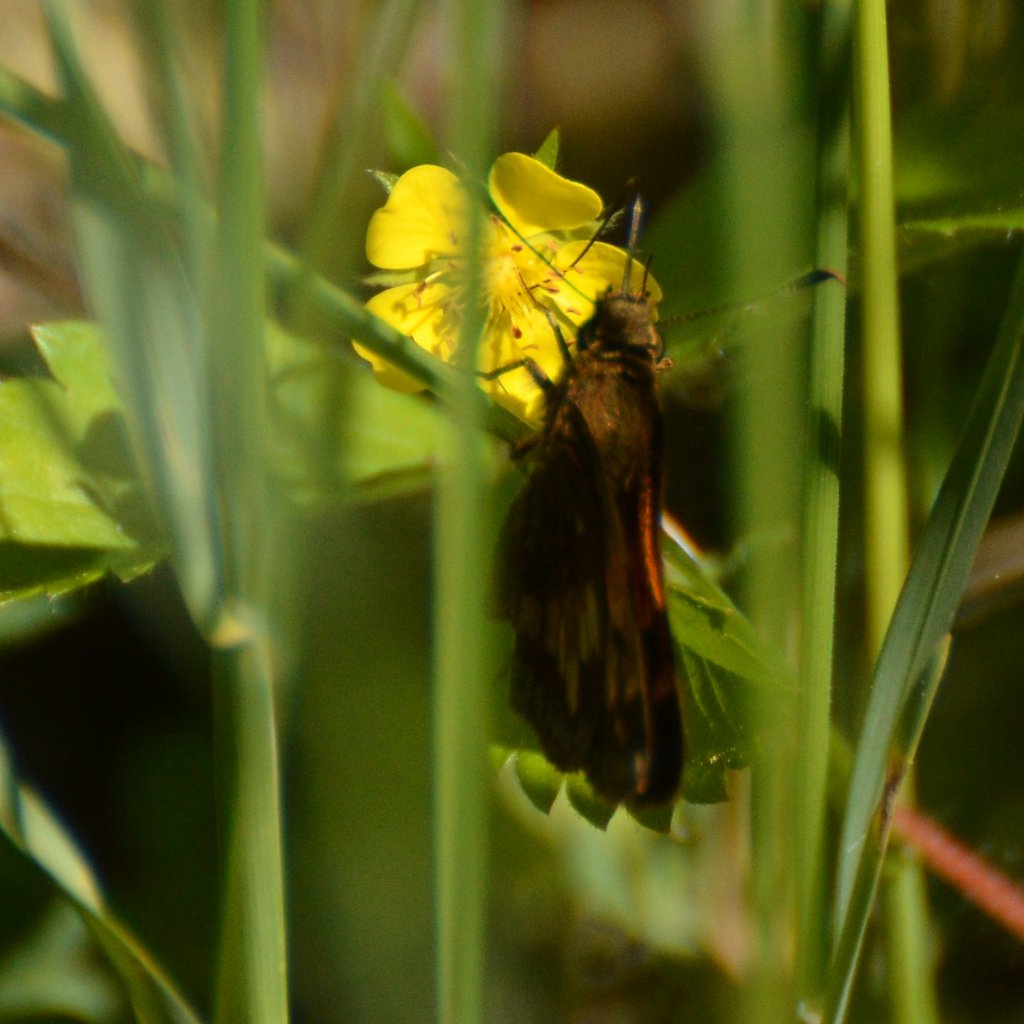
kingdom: Animalia
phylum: Arthropoda
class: Insecta
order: Lepidoptera
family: Hesperiidae
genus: Lon
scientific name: Lon hobomok
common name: Hobomok Skipper
